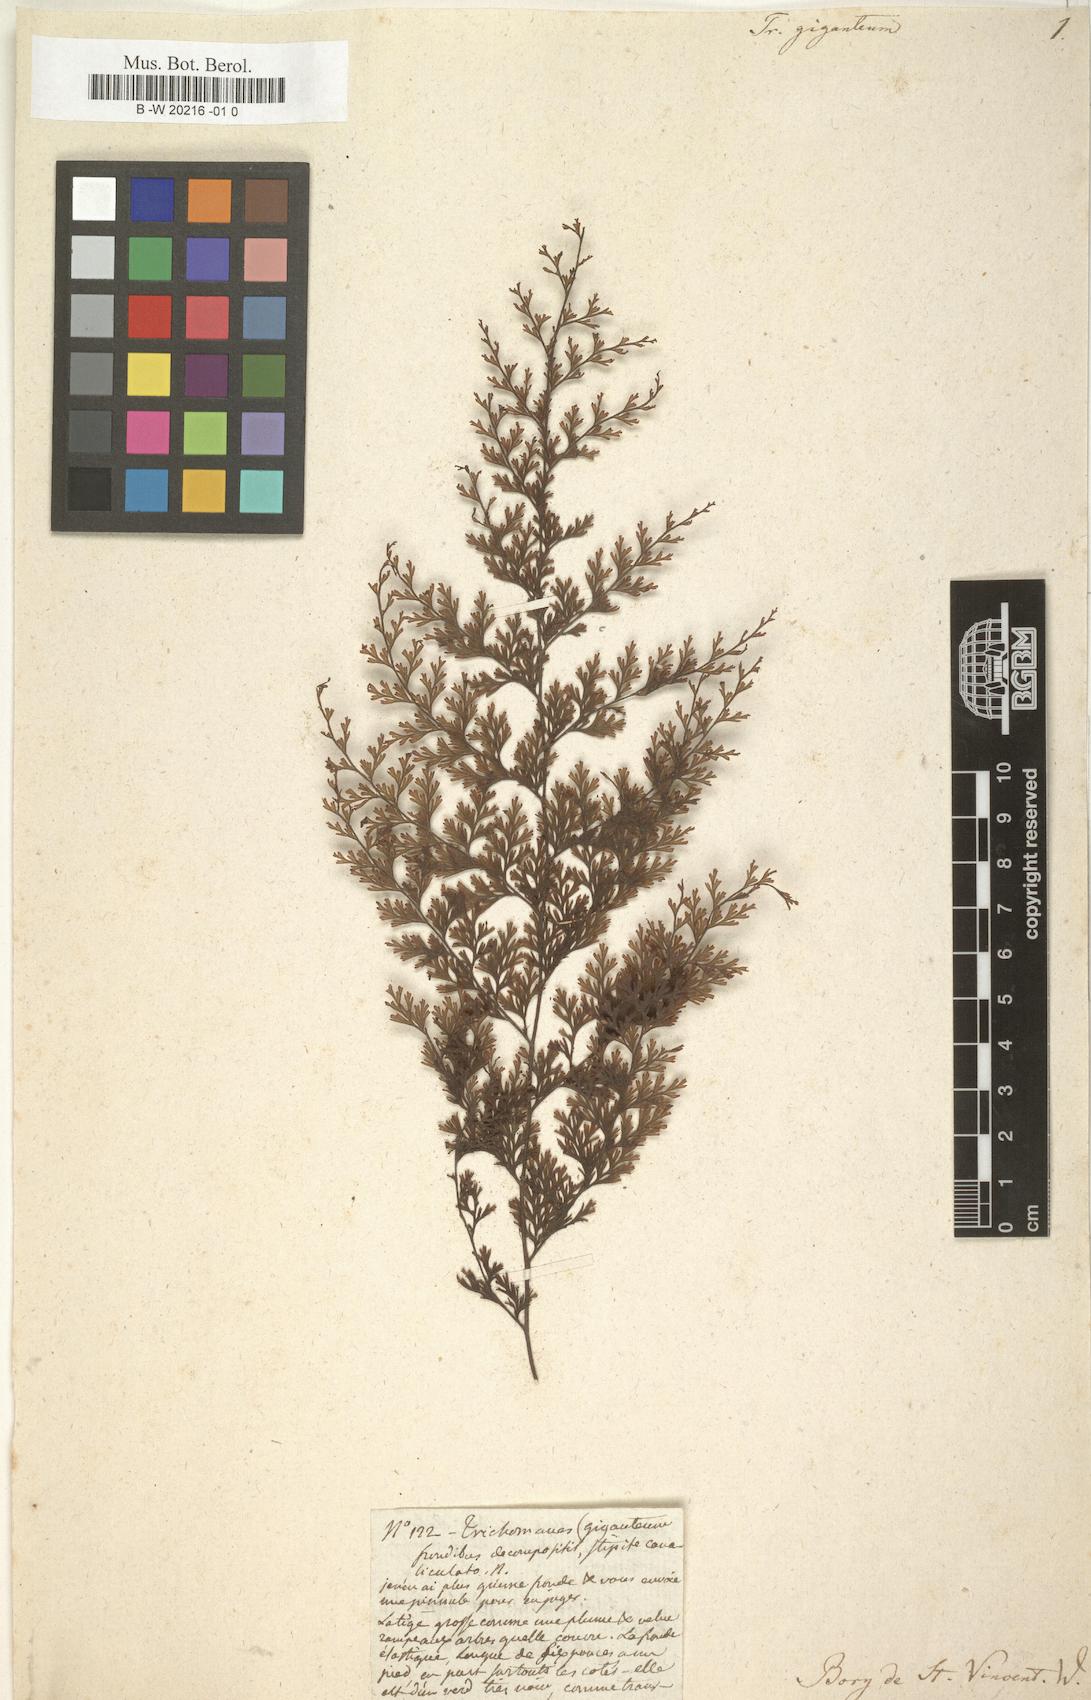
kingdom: Plantae
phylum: Tracheophyta
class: Polypodiopsida
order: Hymenophyllales
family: Hymenophyllaceae
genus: Vandenboschia
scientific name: Vandenboschia gigantea
